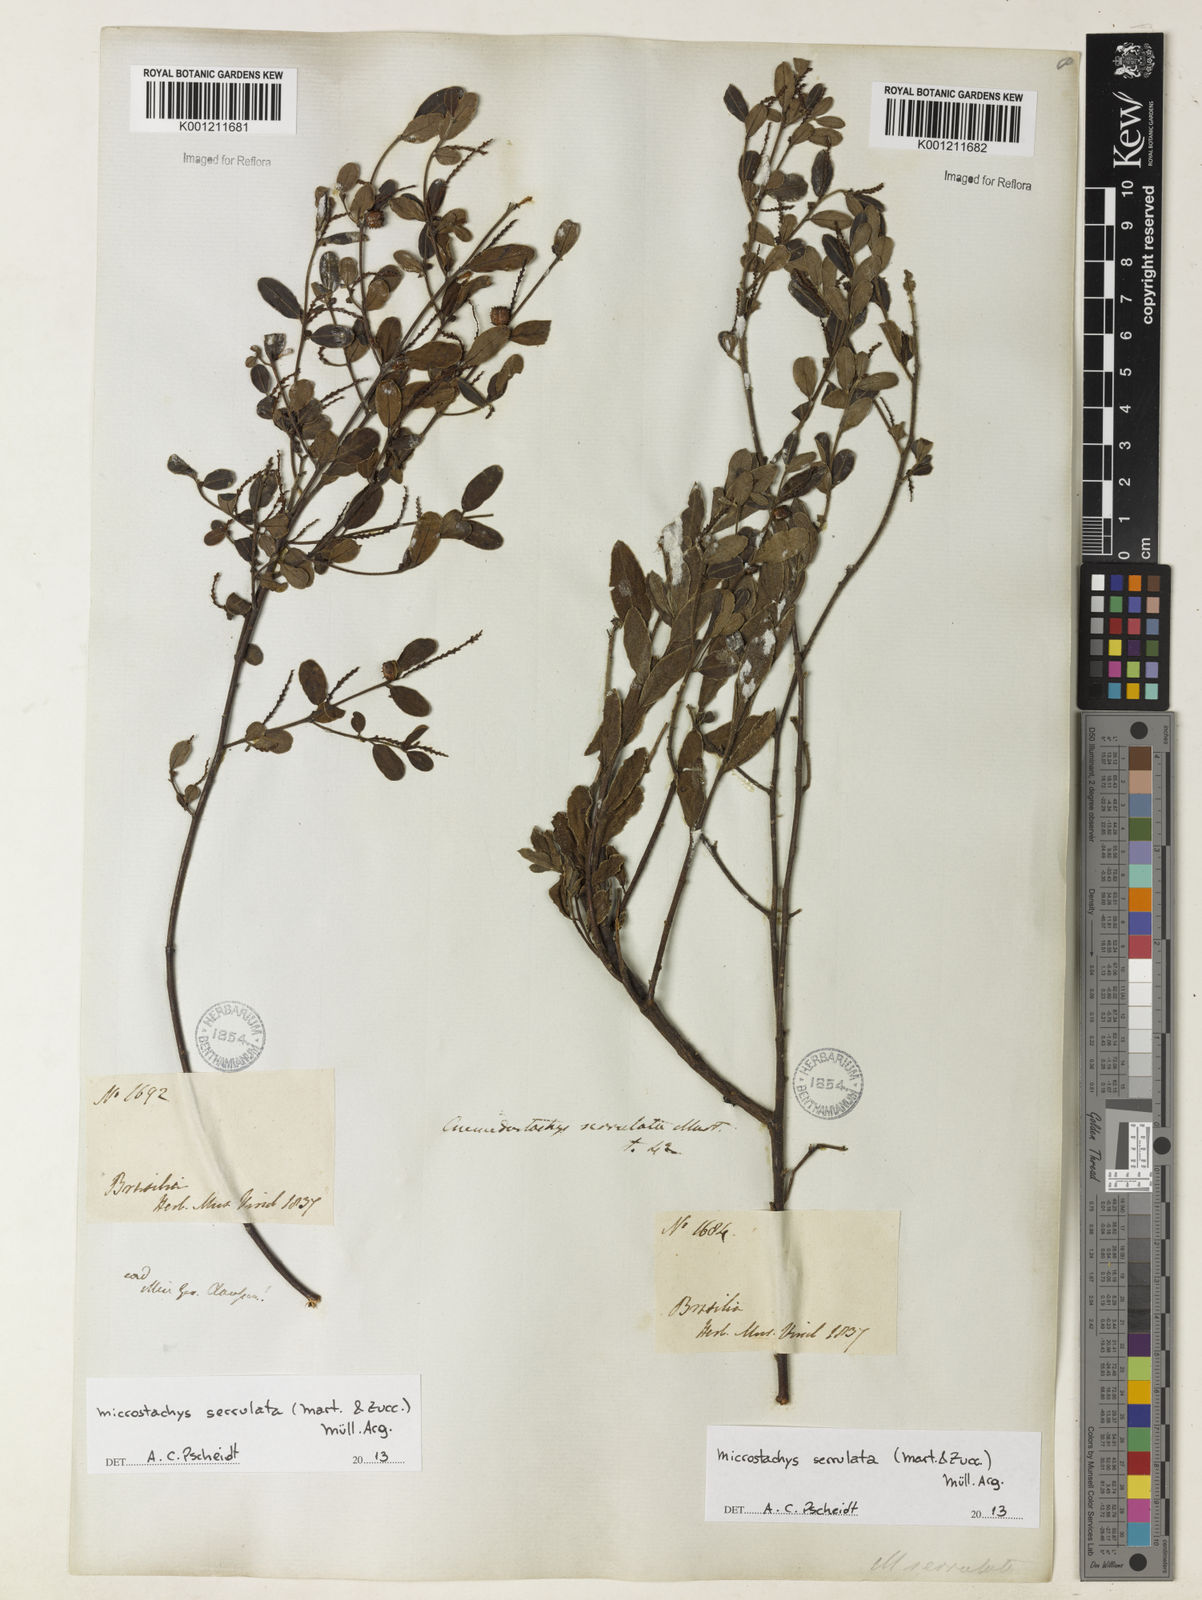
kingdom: Plantae
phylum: Tracheophyta
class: Magnoliopsida
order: Malpighiales
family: Euphorbiaceae
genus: Microstachys
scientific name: Microstachys
